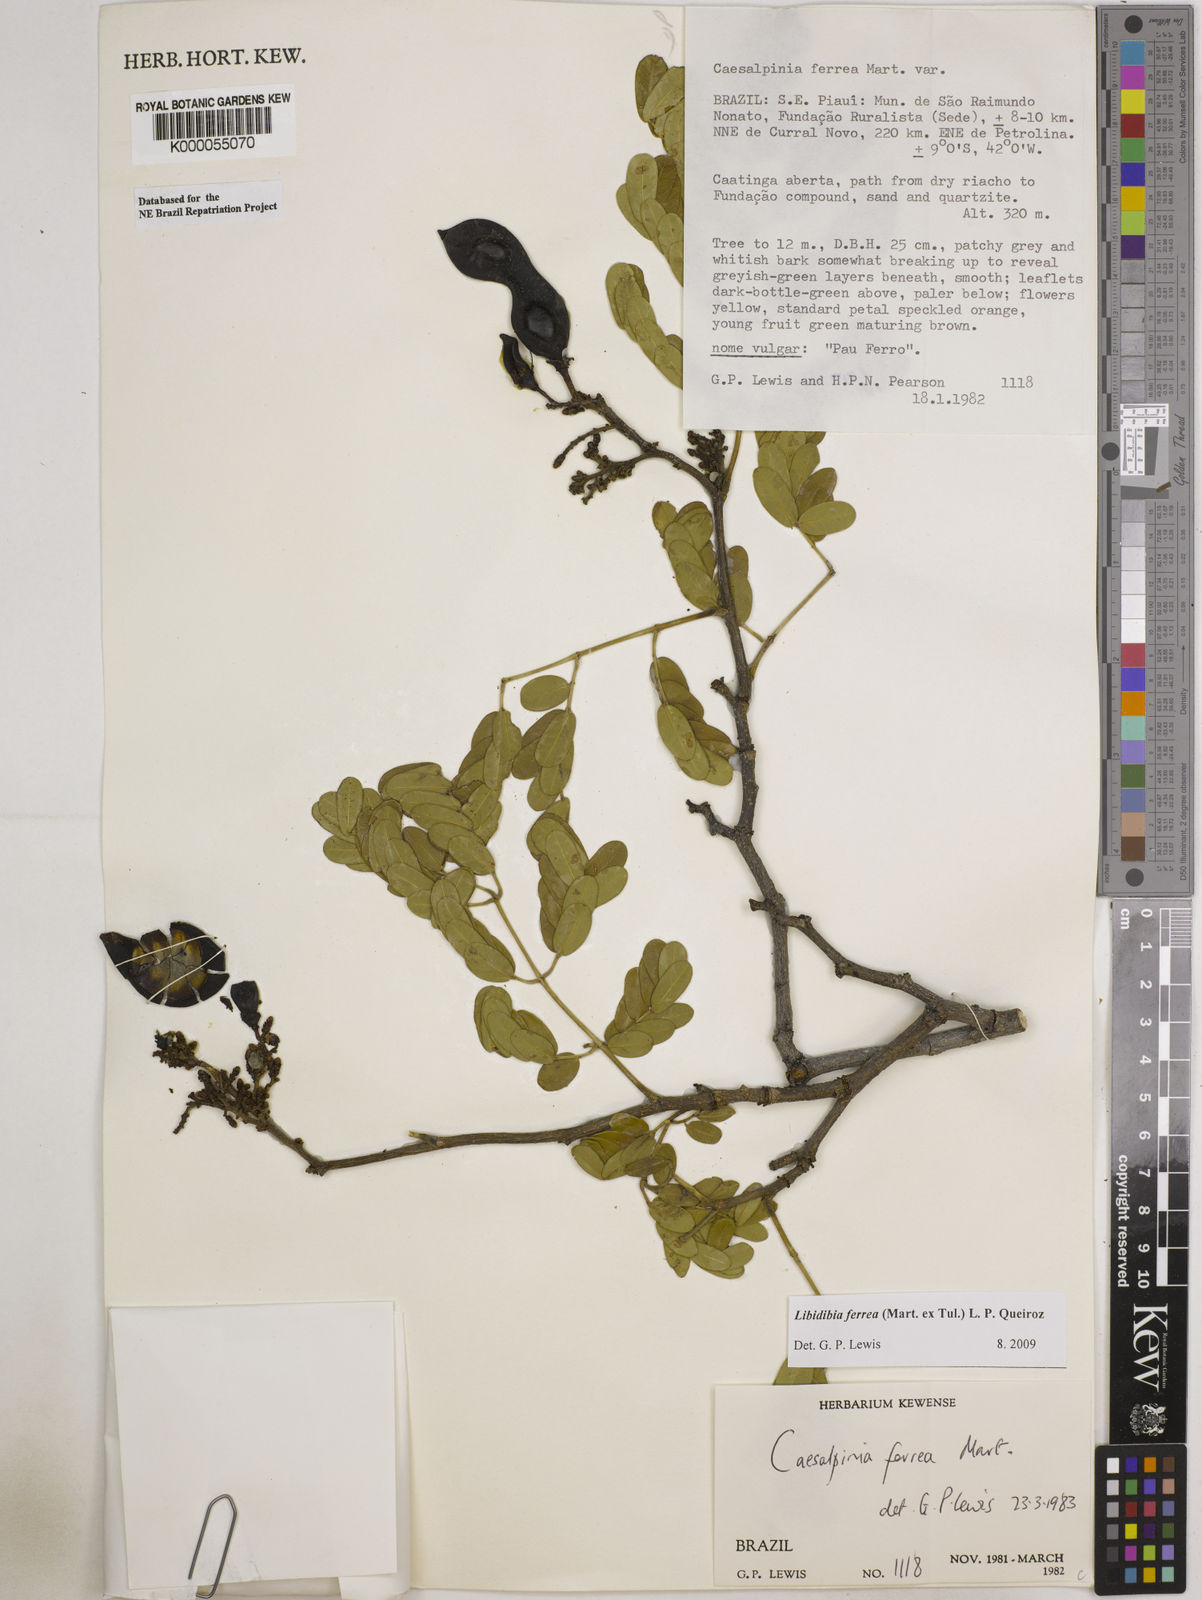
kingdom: Plantae
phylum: Tracheophyta
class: Magnoliopsida
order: Fabales
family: Fabaceae
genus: Libidibia
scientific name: Libidibia ferrea
